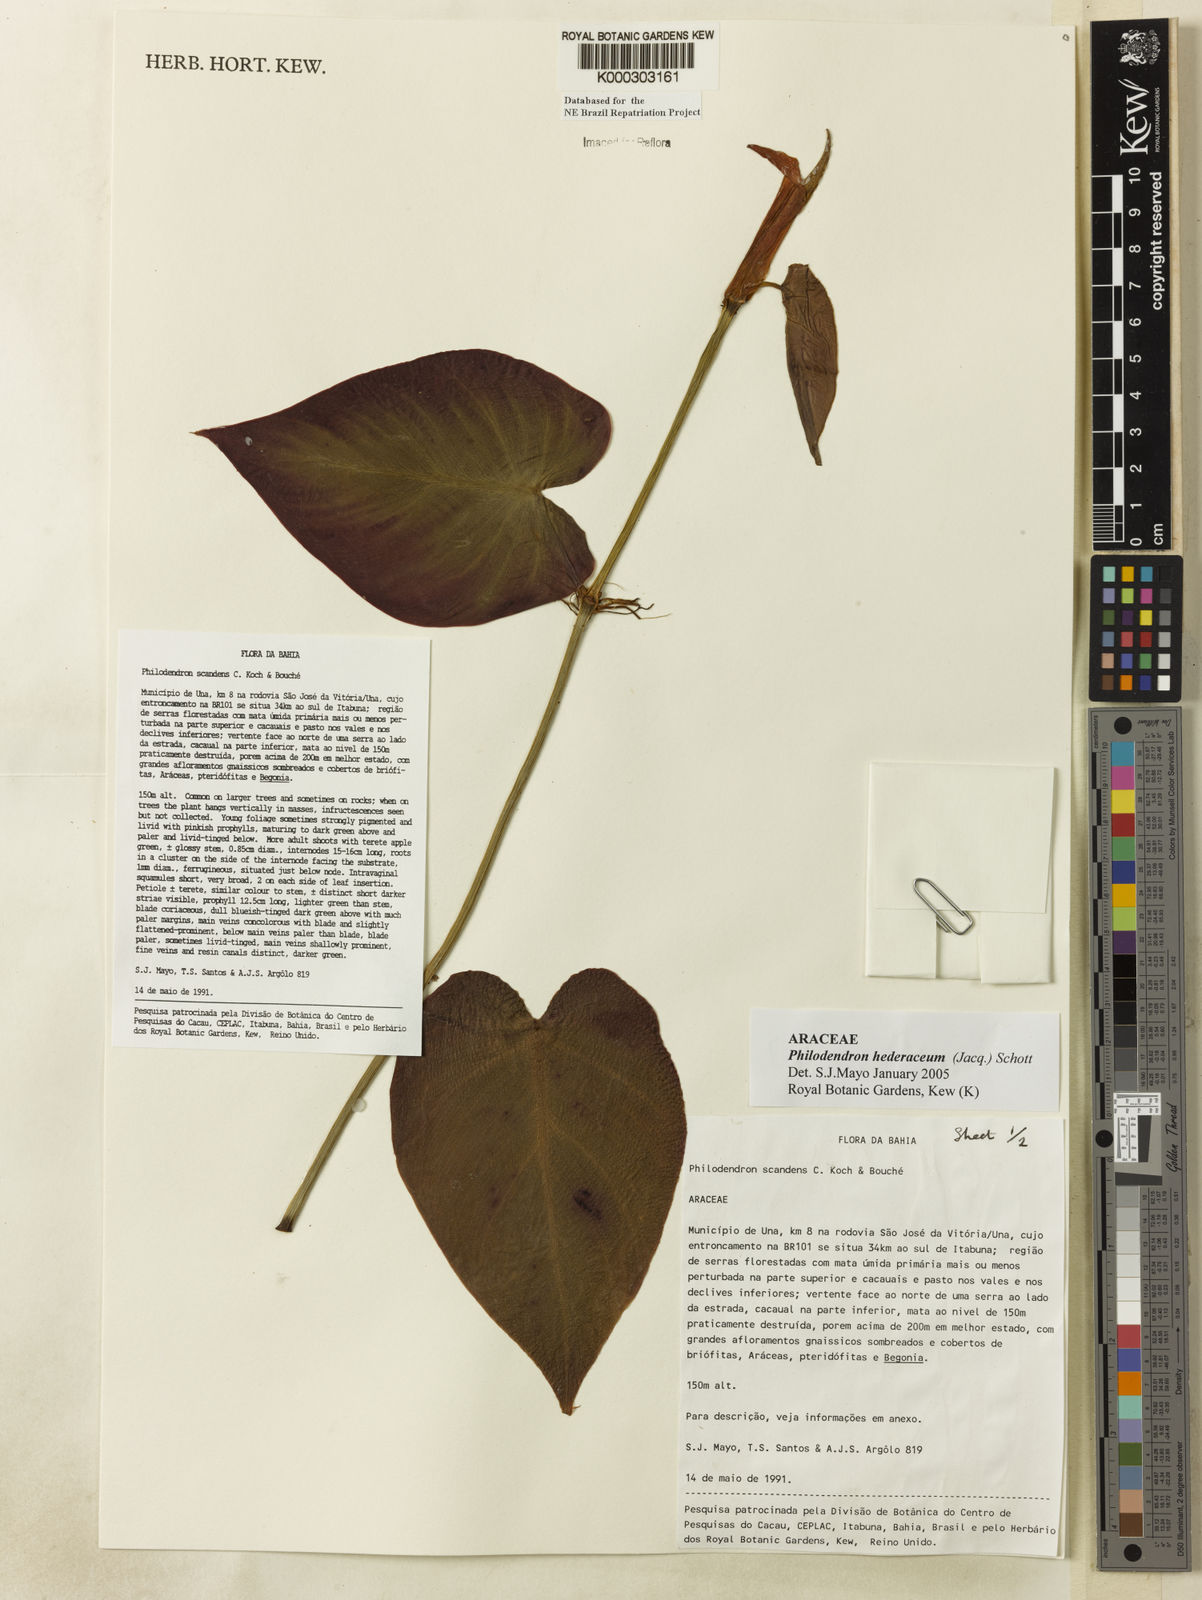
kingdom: Plantae
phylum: Tracheophyta
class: Liliopsida
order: Alismatales
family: Araceae
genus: Philodendron
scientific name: Philodendron hederaceum
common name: Vilevine
